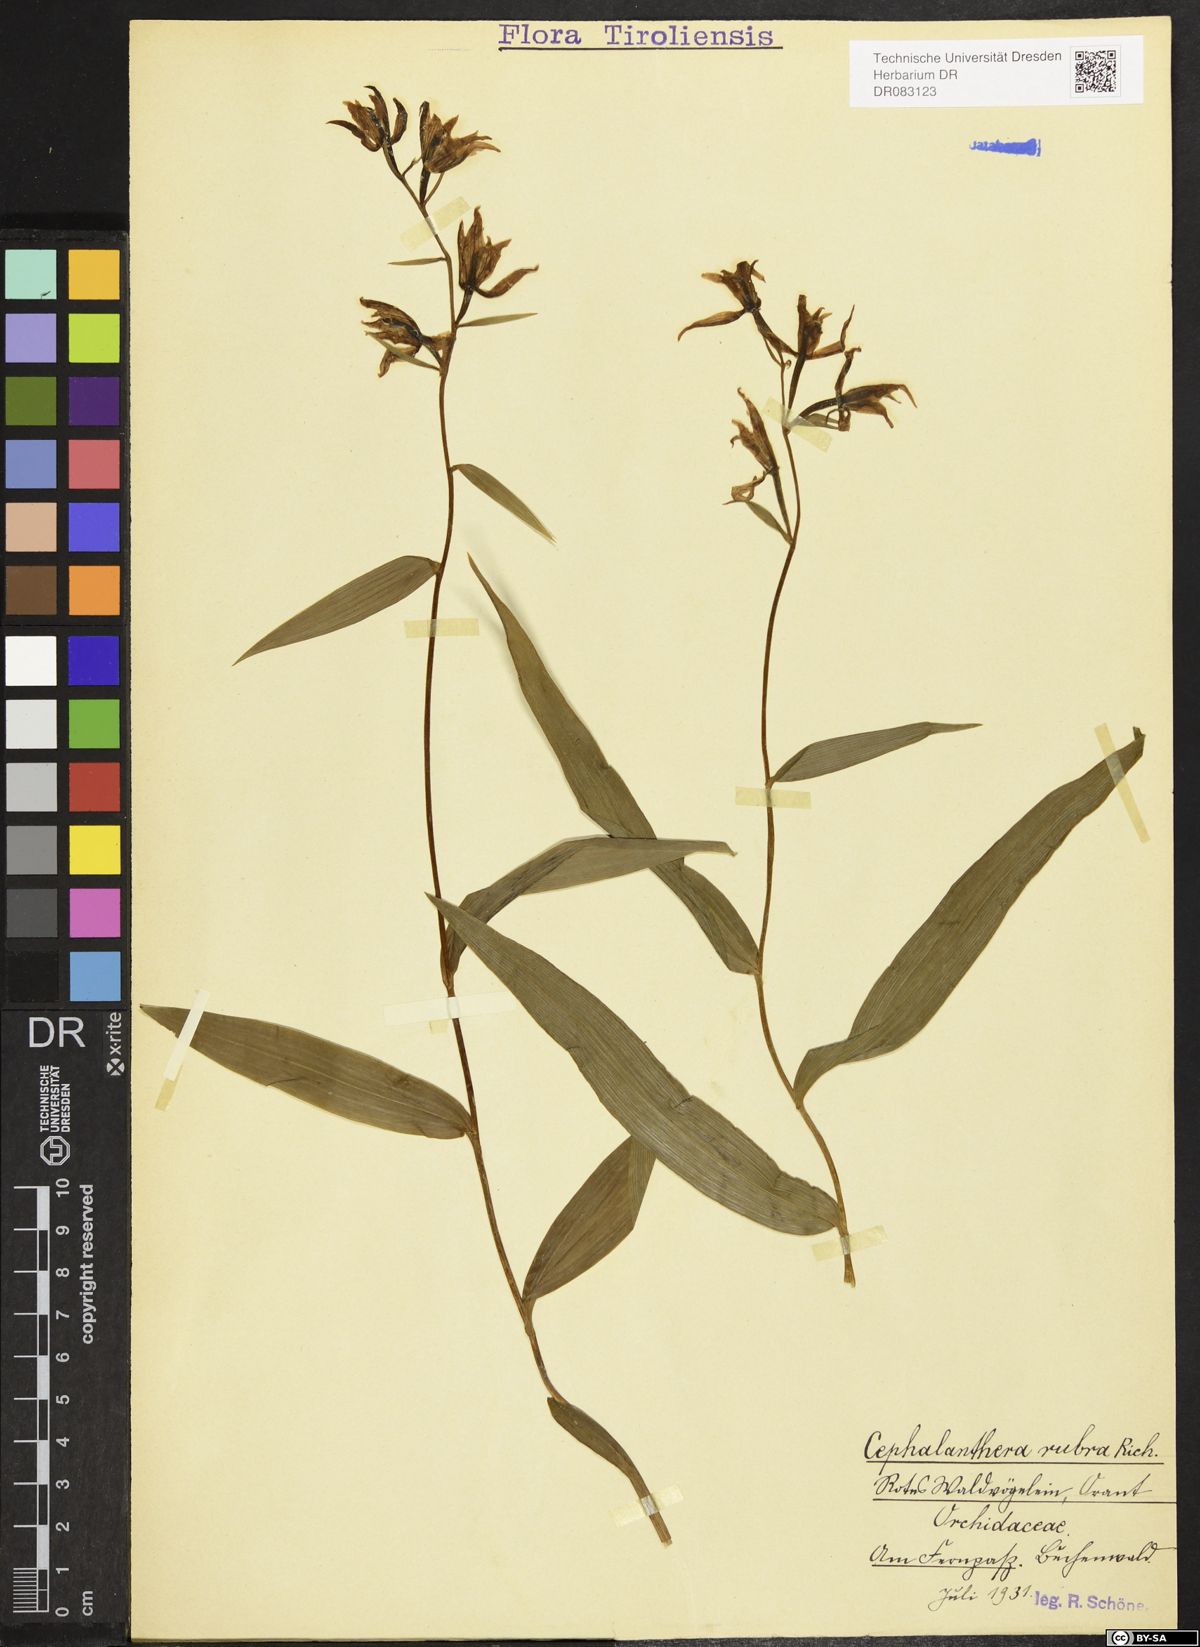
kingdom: Plantae
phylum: Tracheophyta
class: Liliopsida
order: Asparagales
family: Orchidaceae
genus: Cephalanthera
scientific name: Cephalanthera rubra
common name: Red helleborine
